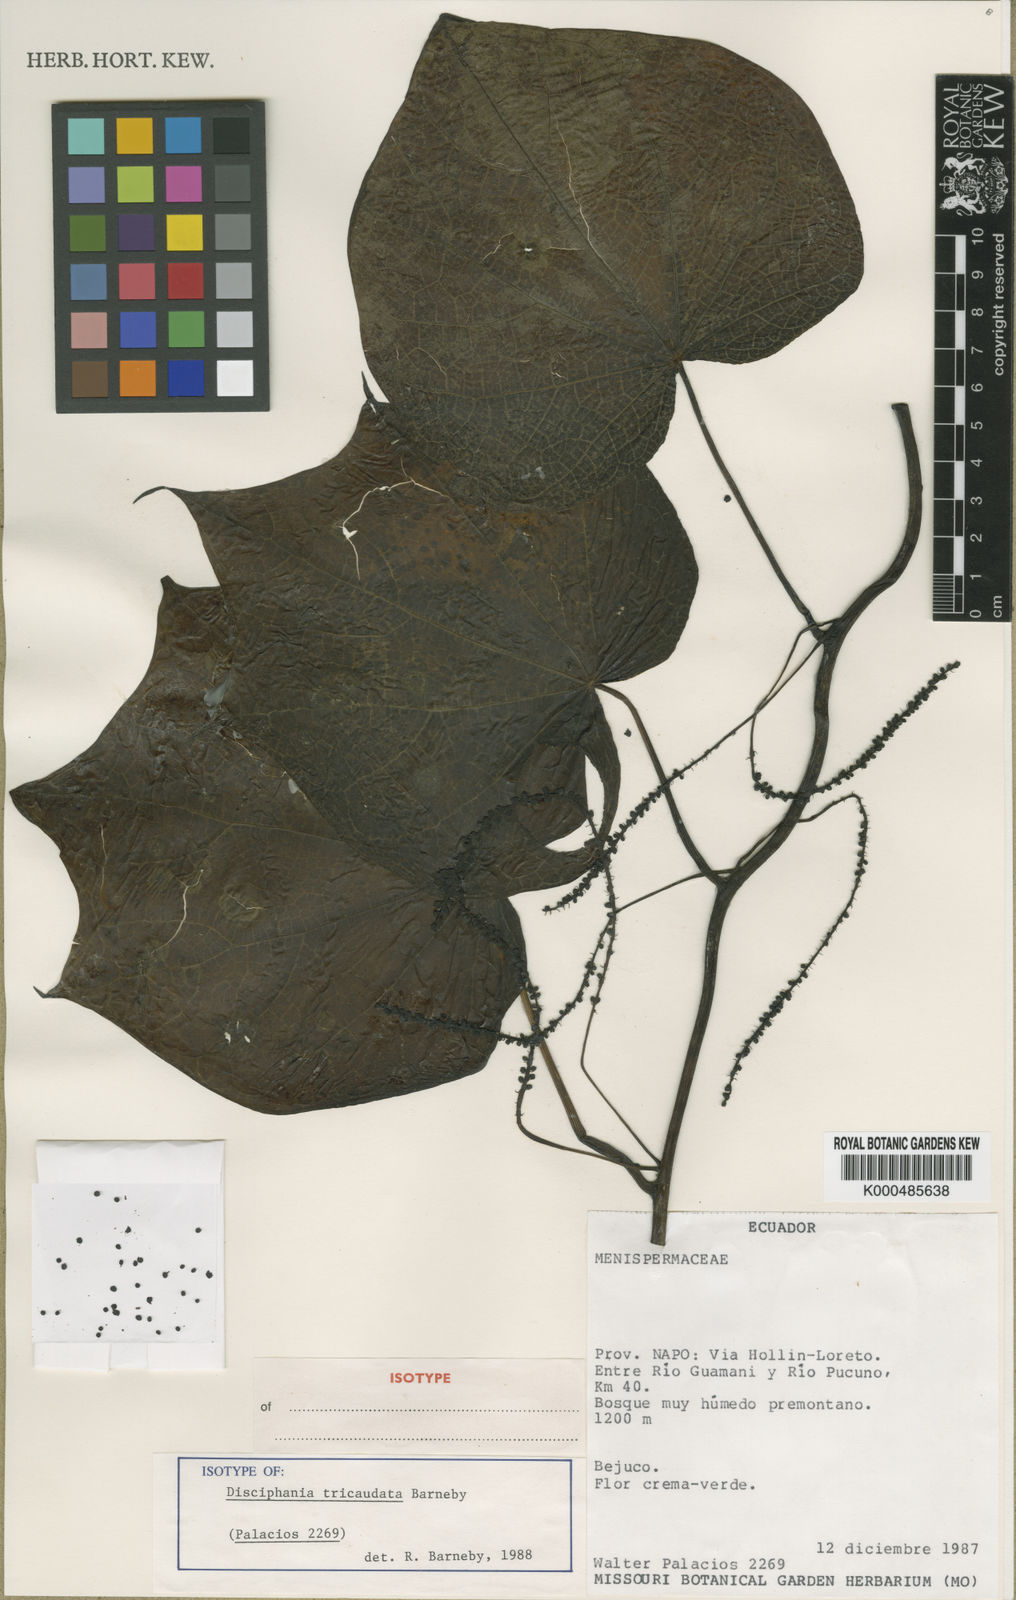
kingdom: Plantae
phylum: Tracheophyta
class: Magnoliopsida
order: Ranunculales
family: Menispermaceae
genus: Disciphania
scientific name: Disciphania tricaudata
